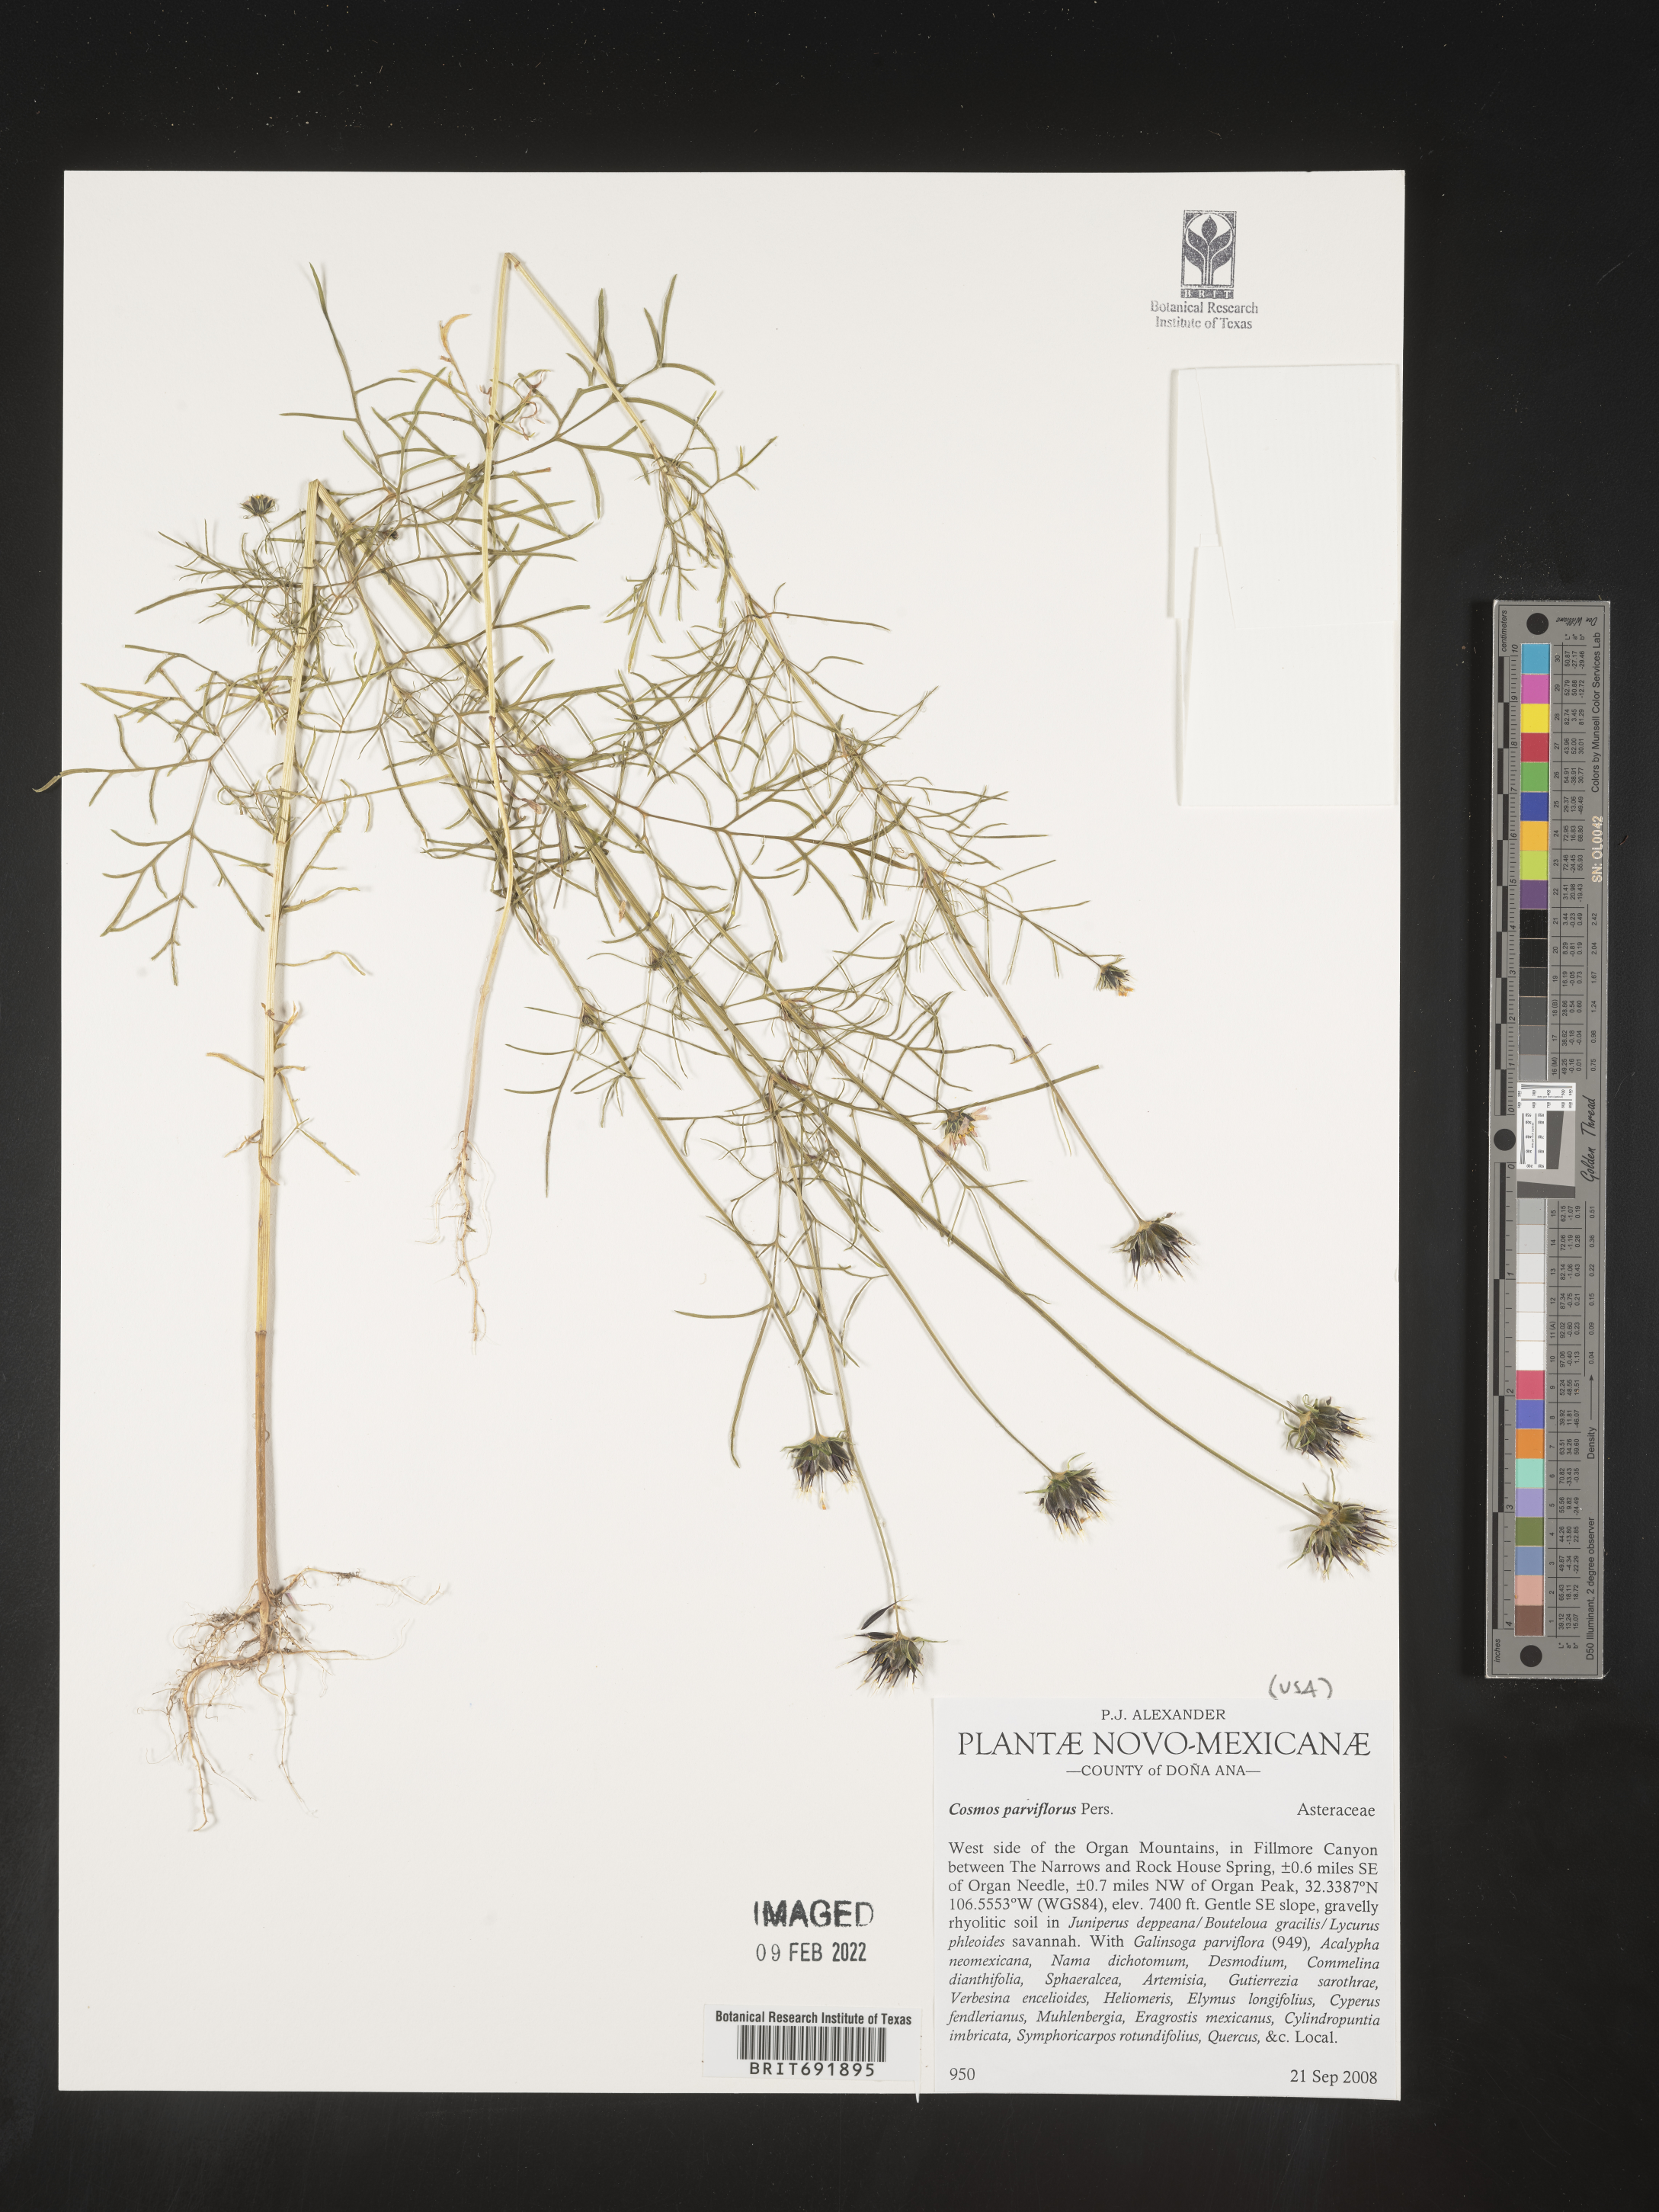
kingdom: Plantae
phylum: Tracheophyta
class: Magnoliopsida
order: Asterales
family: Asteraceae
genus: Cosmos
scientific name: Cosmos
